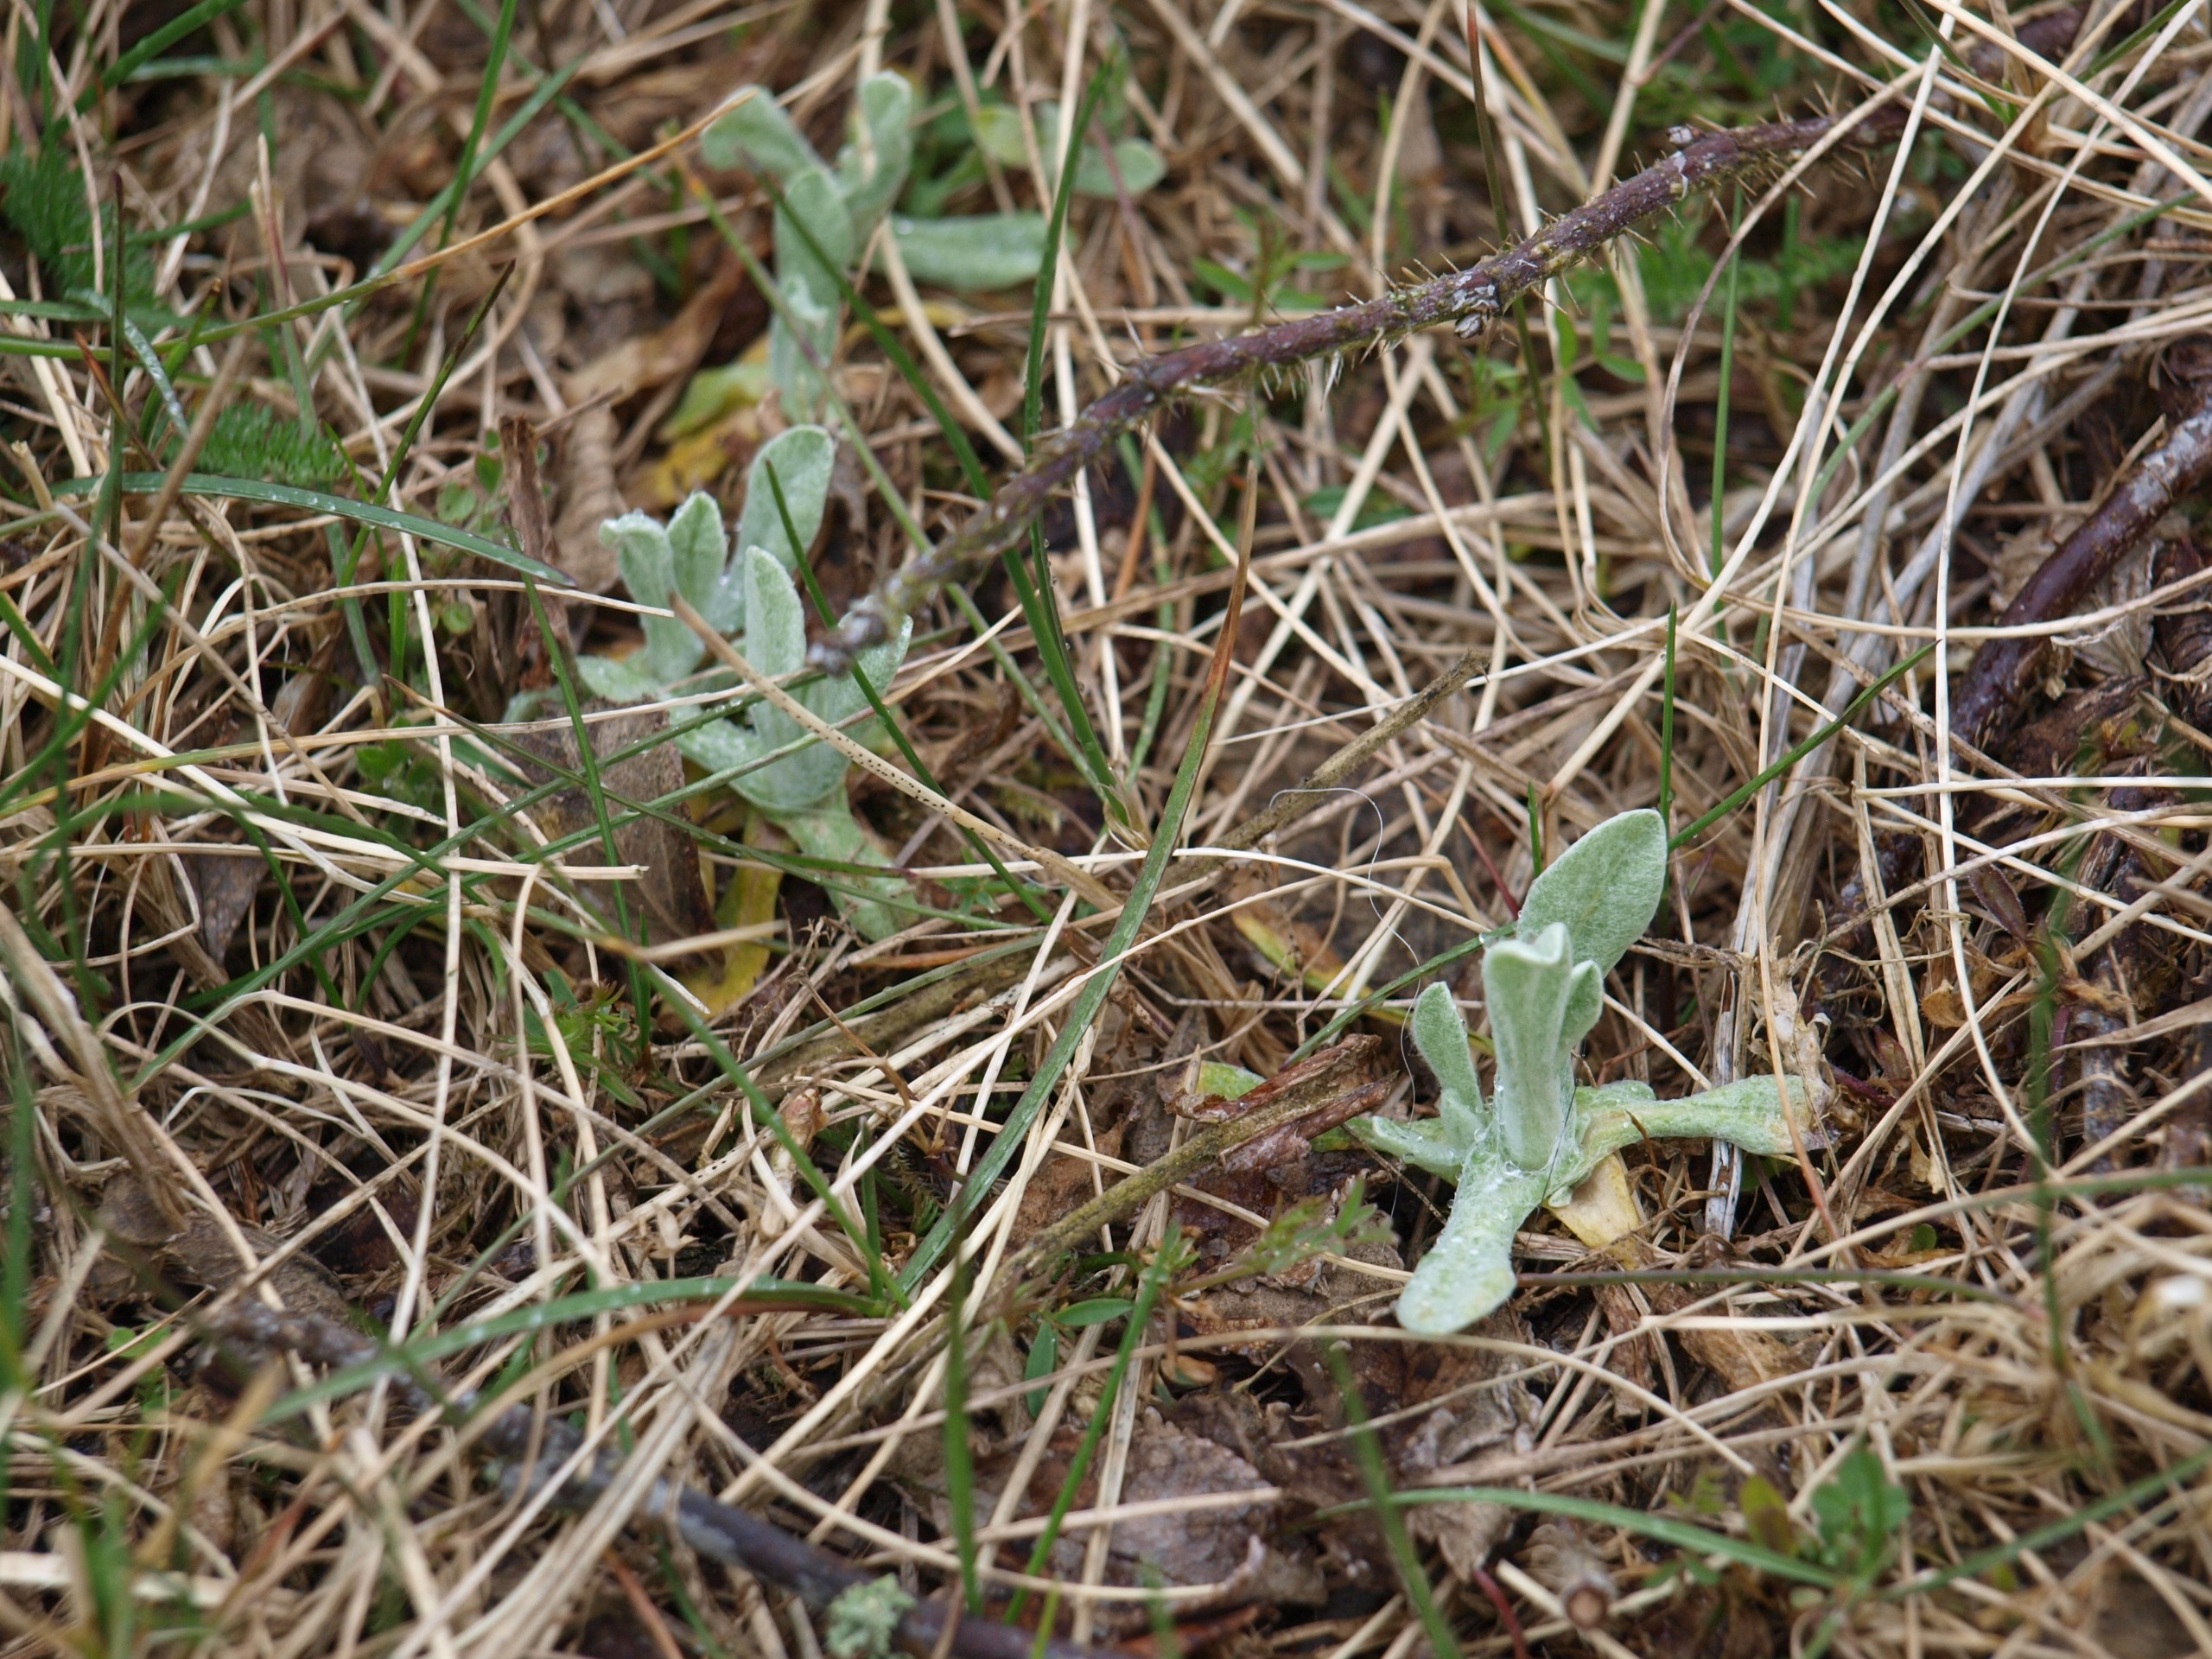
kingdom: Plantae
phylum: Tracheophyta
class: Magnoliopsida
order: Asterales
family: Asteraceae
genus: Helichrysum
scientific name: Helichrysum arenarium
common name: Gul evighedsblomst
